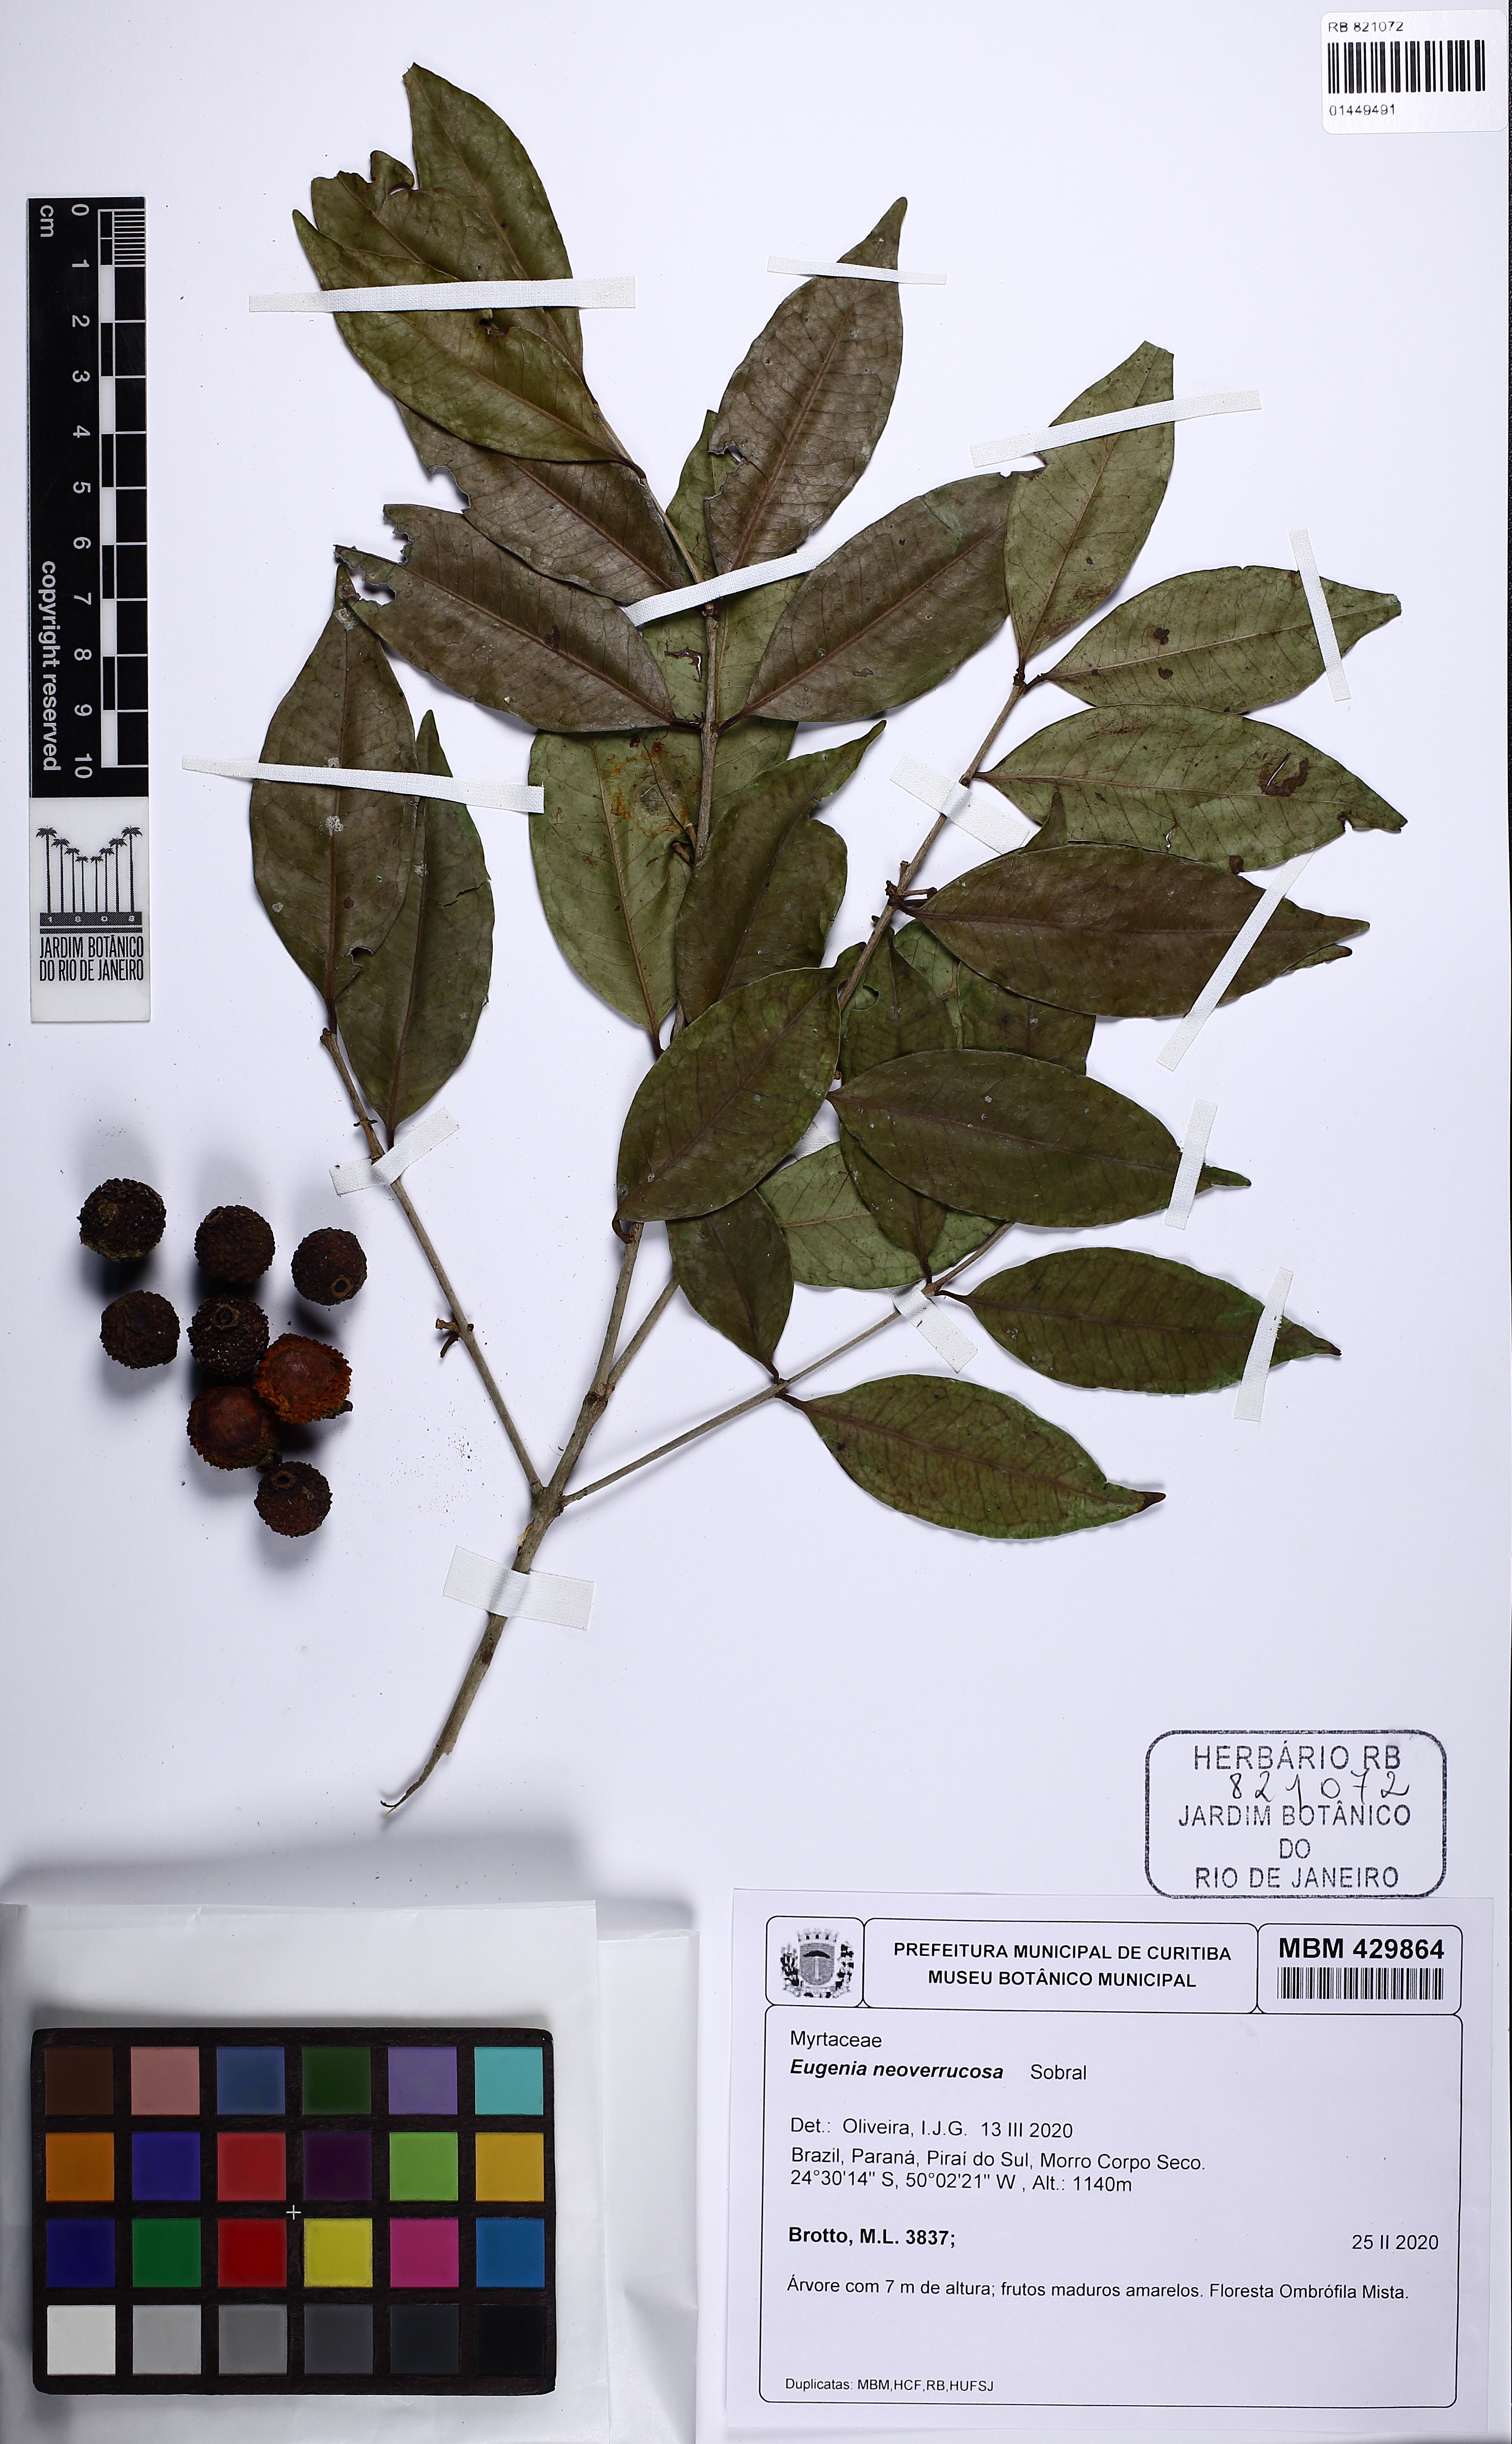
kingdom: Plantae
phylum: Tracheophyta
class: Magnoliopsida
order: Myrtales
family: Myrtaceae
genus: Eugenia
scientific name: Eugenia neoverrucosa
